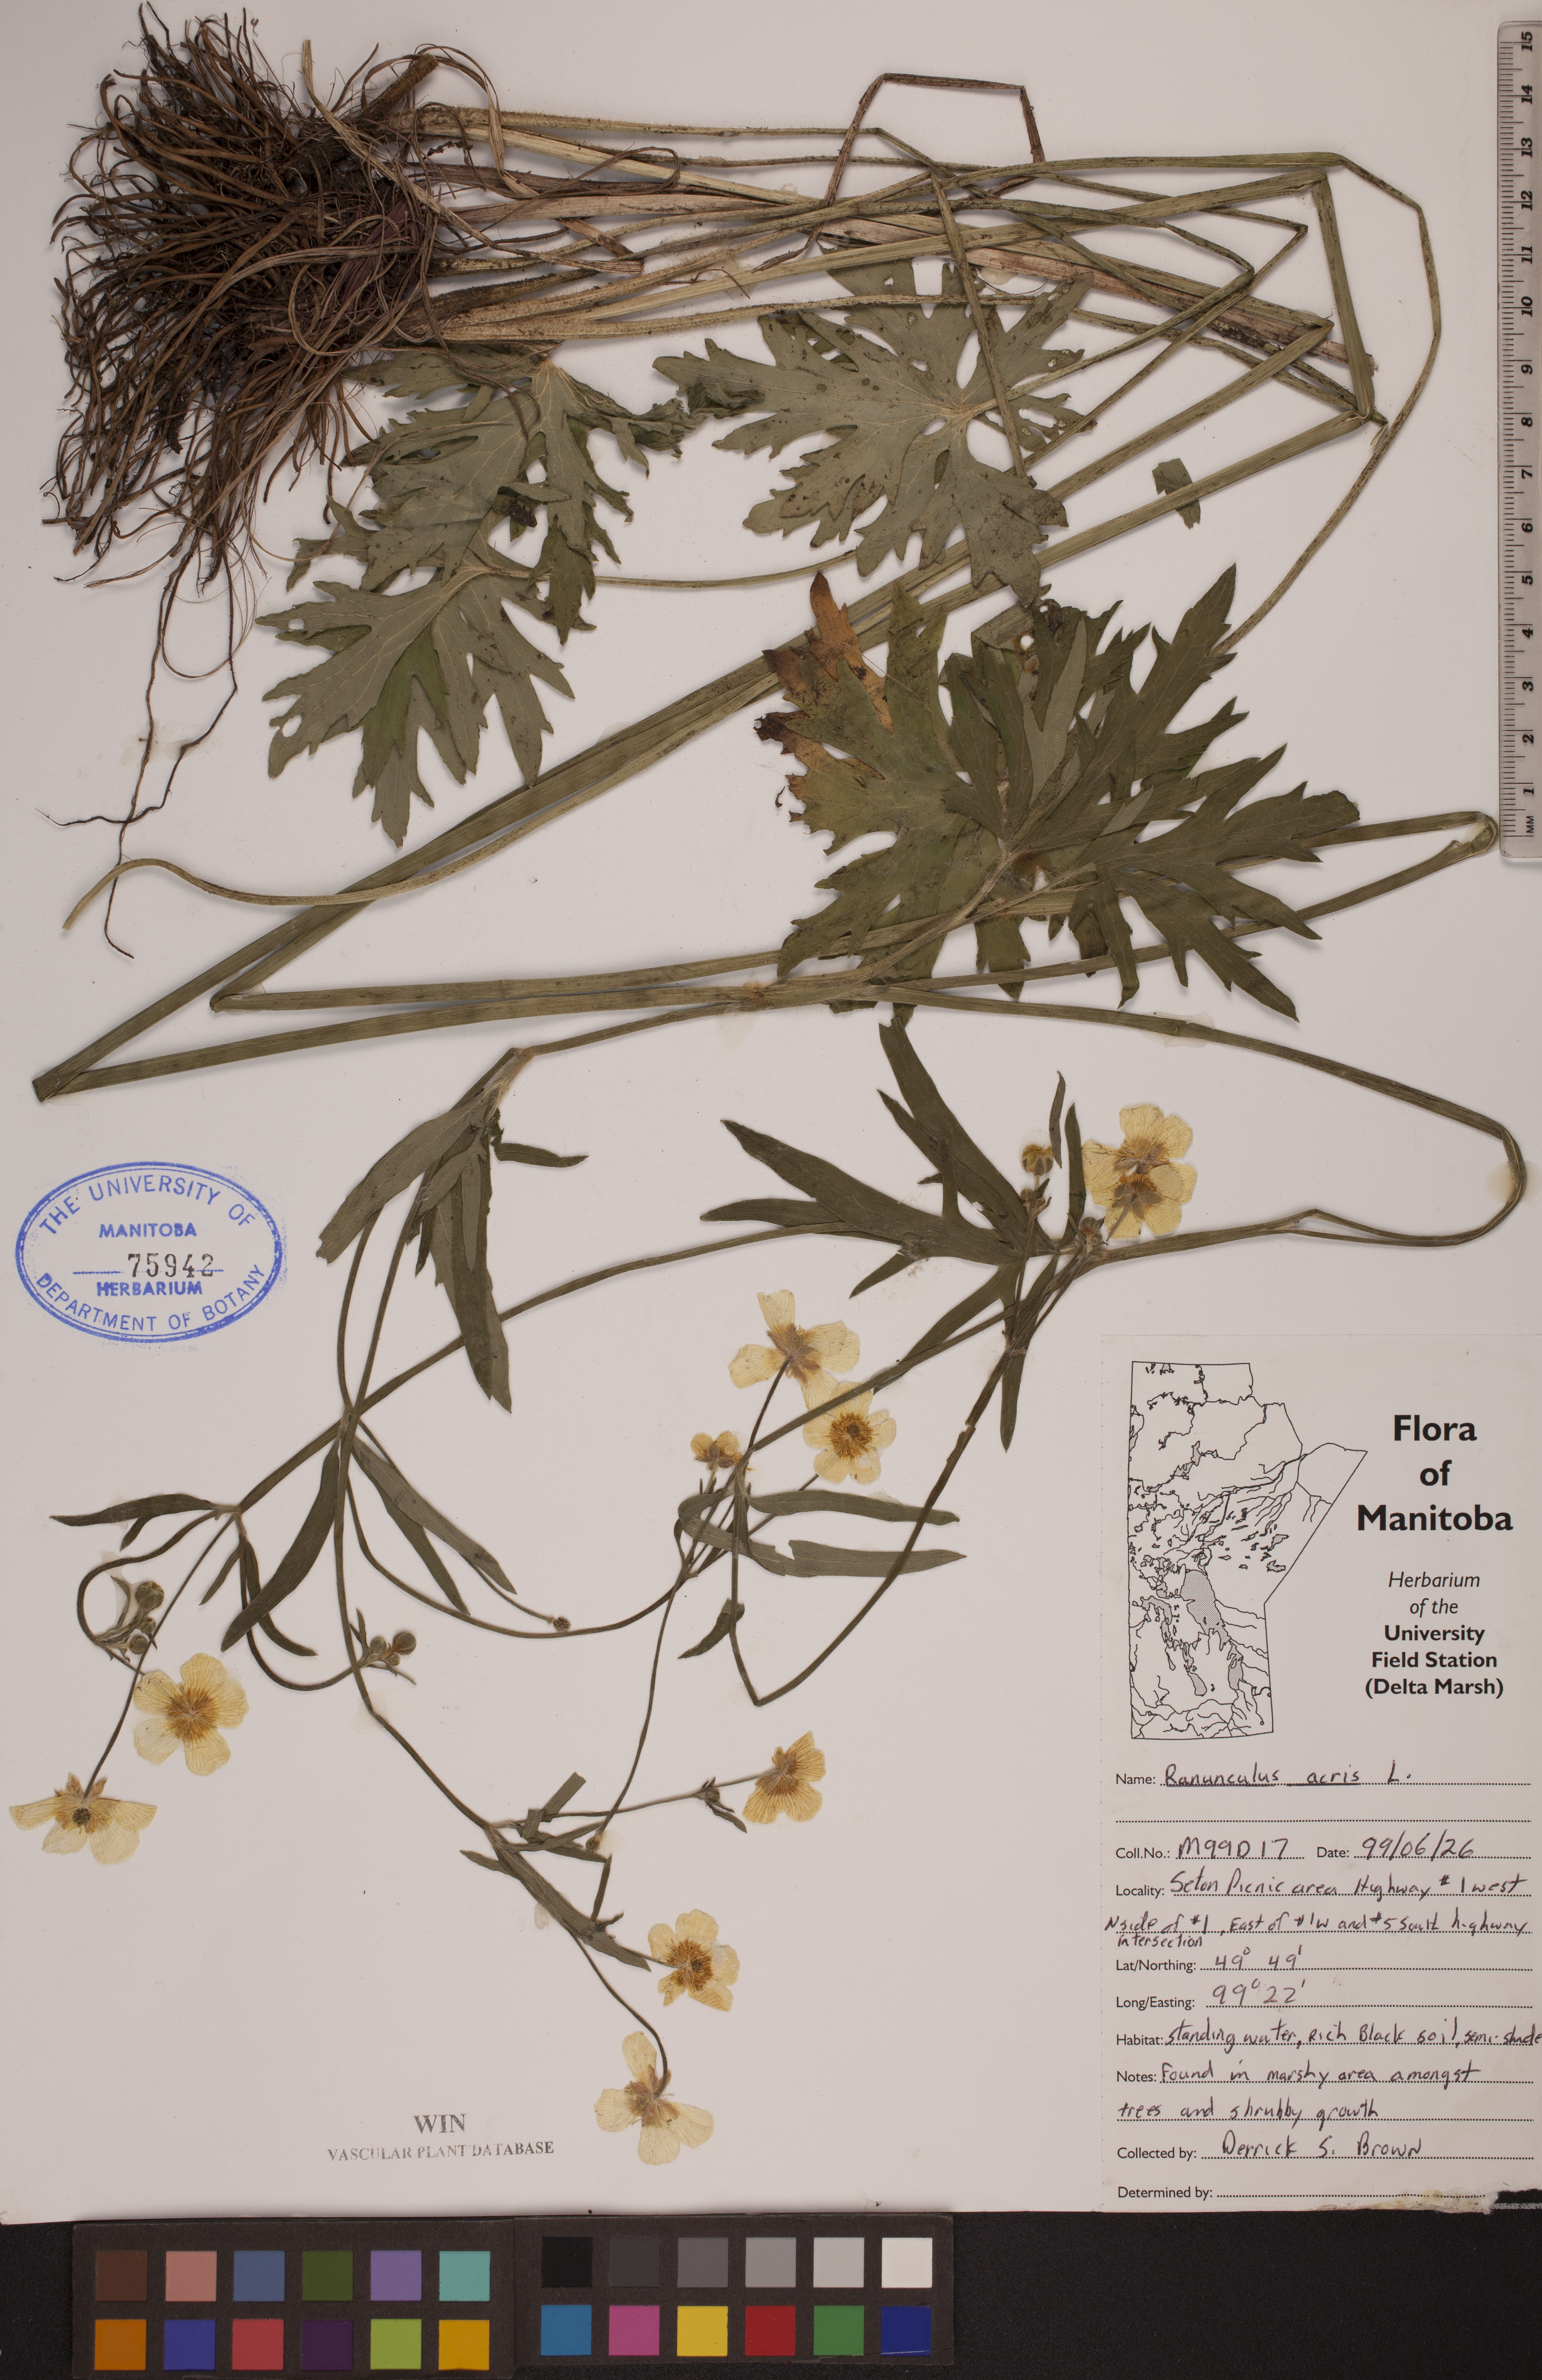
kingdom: Plantae
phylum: Tracheophyta
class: Magnoliopsida
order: Ranunculales
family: Ranunculaceae
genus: Ranunculus
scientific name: Ranunculus acris
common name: Meadow buttercup
